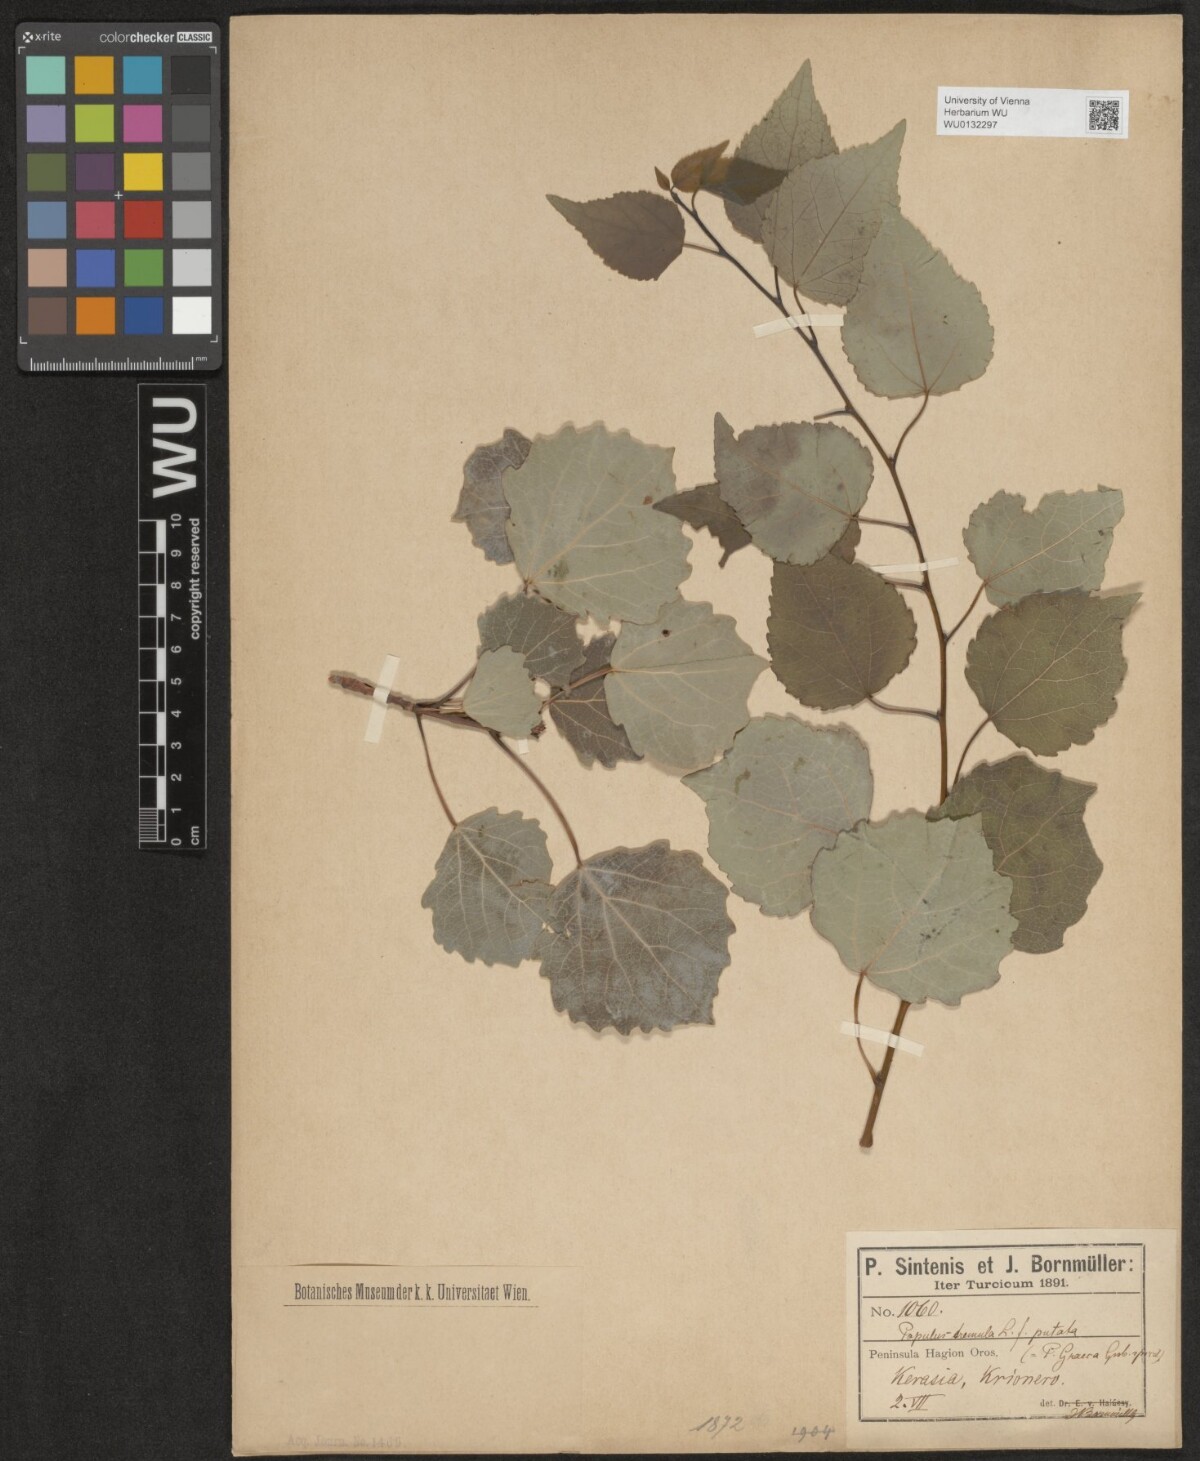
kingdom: Plantae
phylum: Tracheophyta
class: Magnoliopsida
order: Malpighiales
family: Salicaceae
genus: Populus
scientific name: Populus tremula
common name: European aspen
